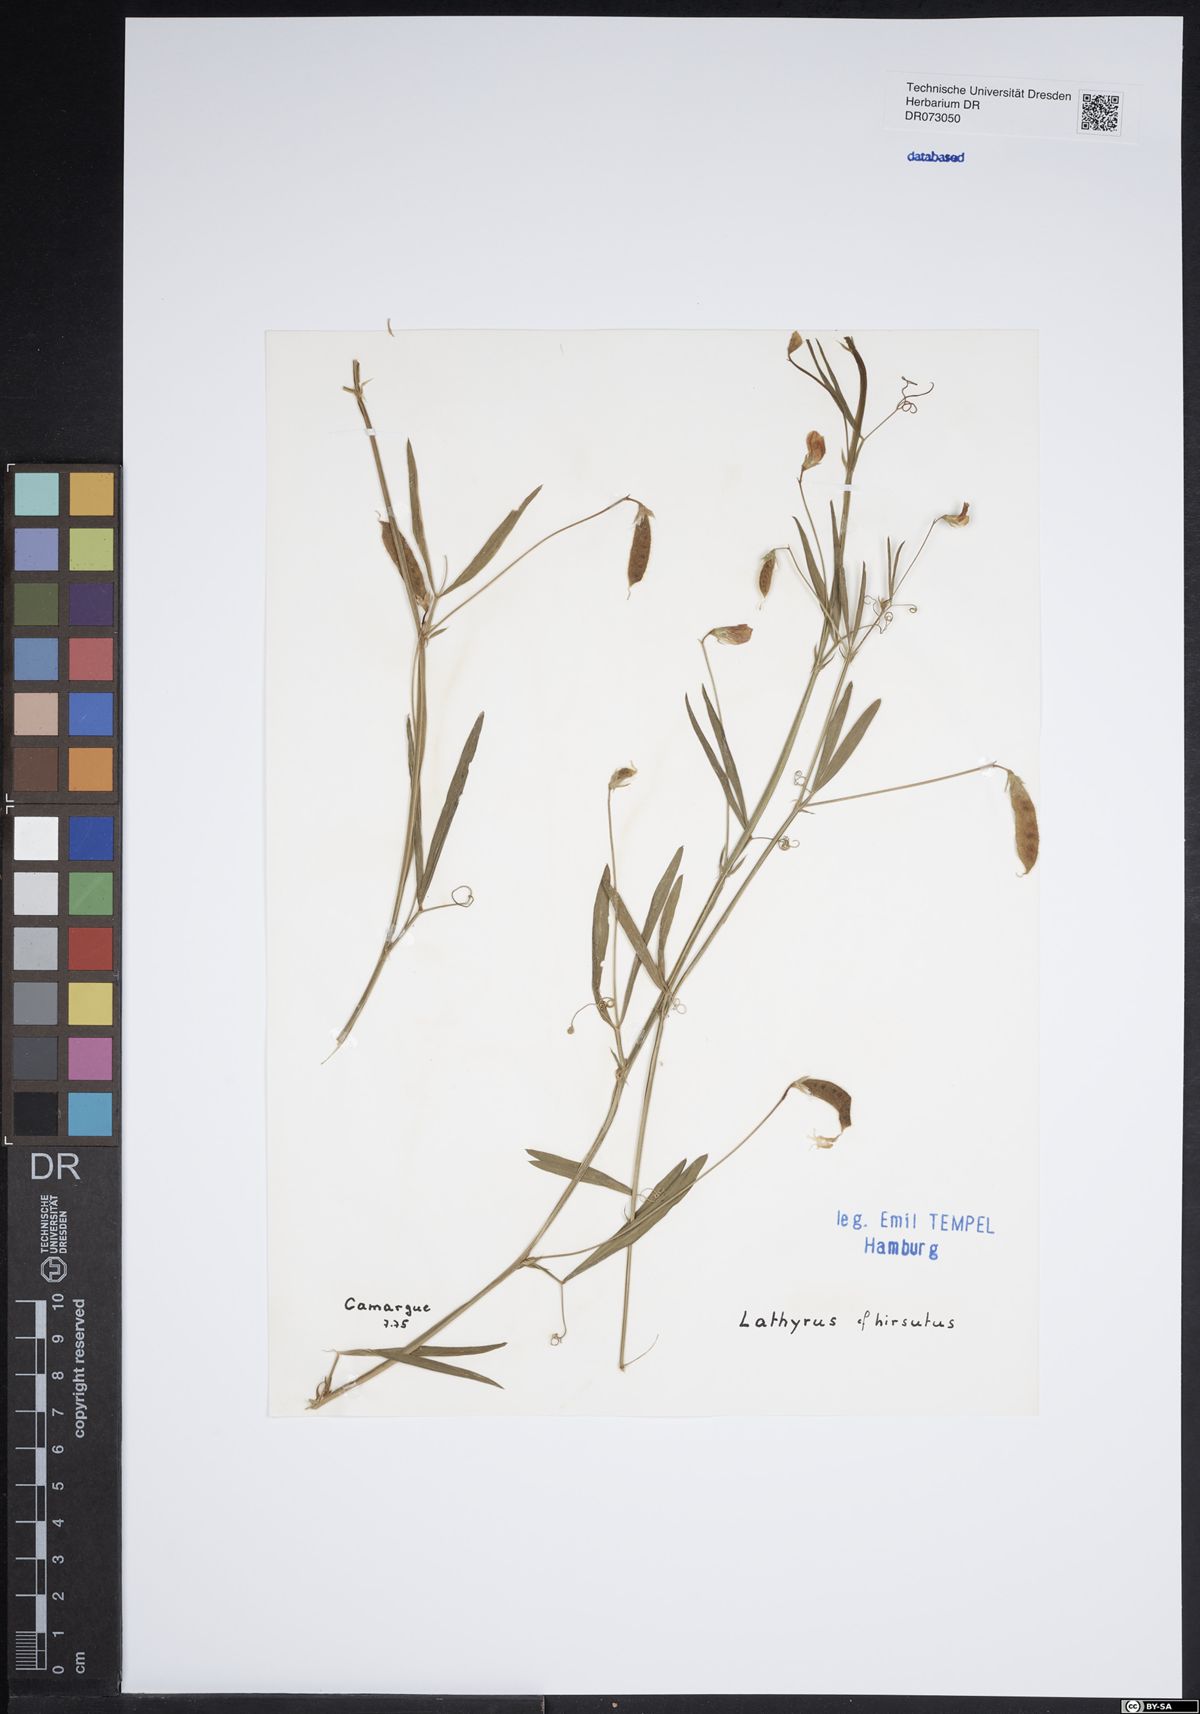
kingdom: Plantae
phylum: Tracheophyta
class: Magnoliopsida
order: Fabales
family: Fabaceae
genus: Lathyrus
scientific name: Lathyrus cicera
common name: Red vetchling
